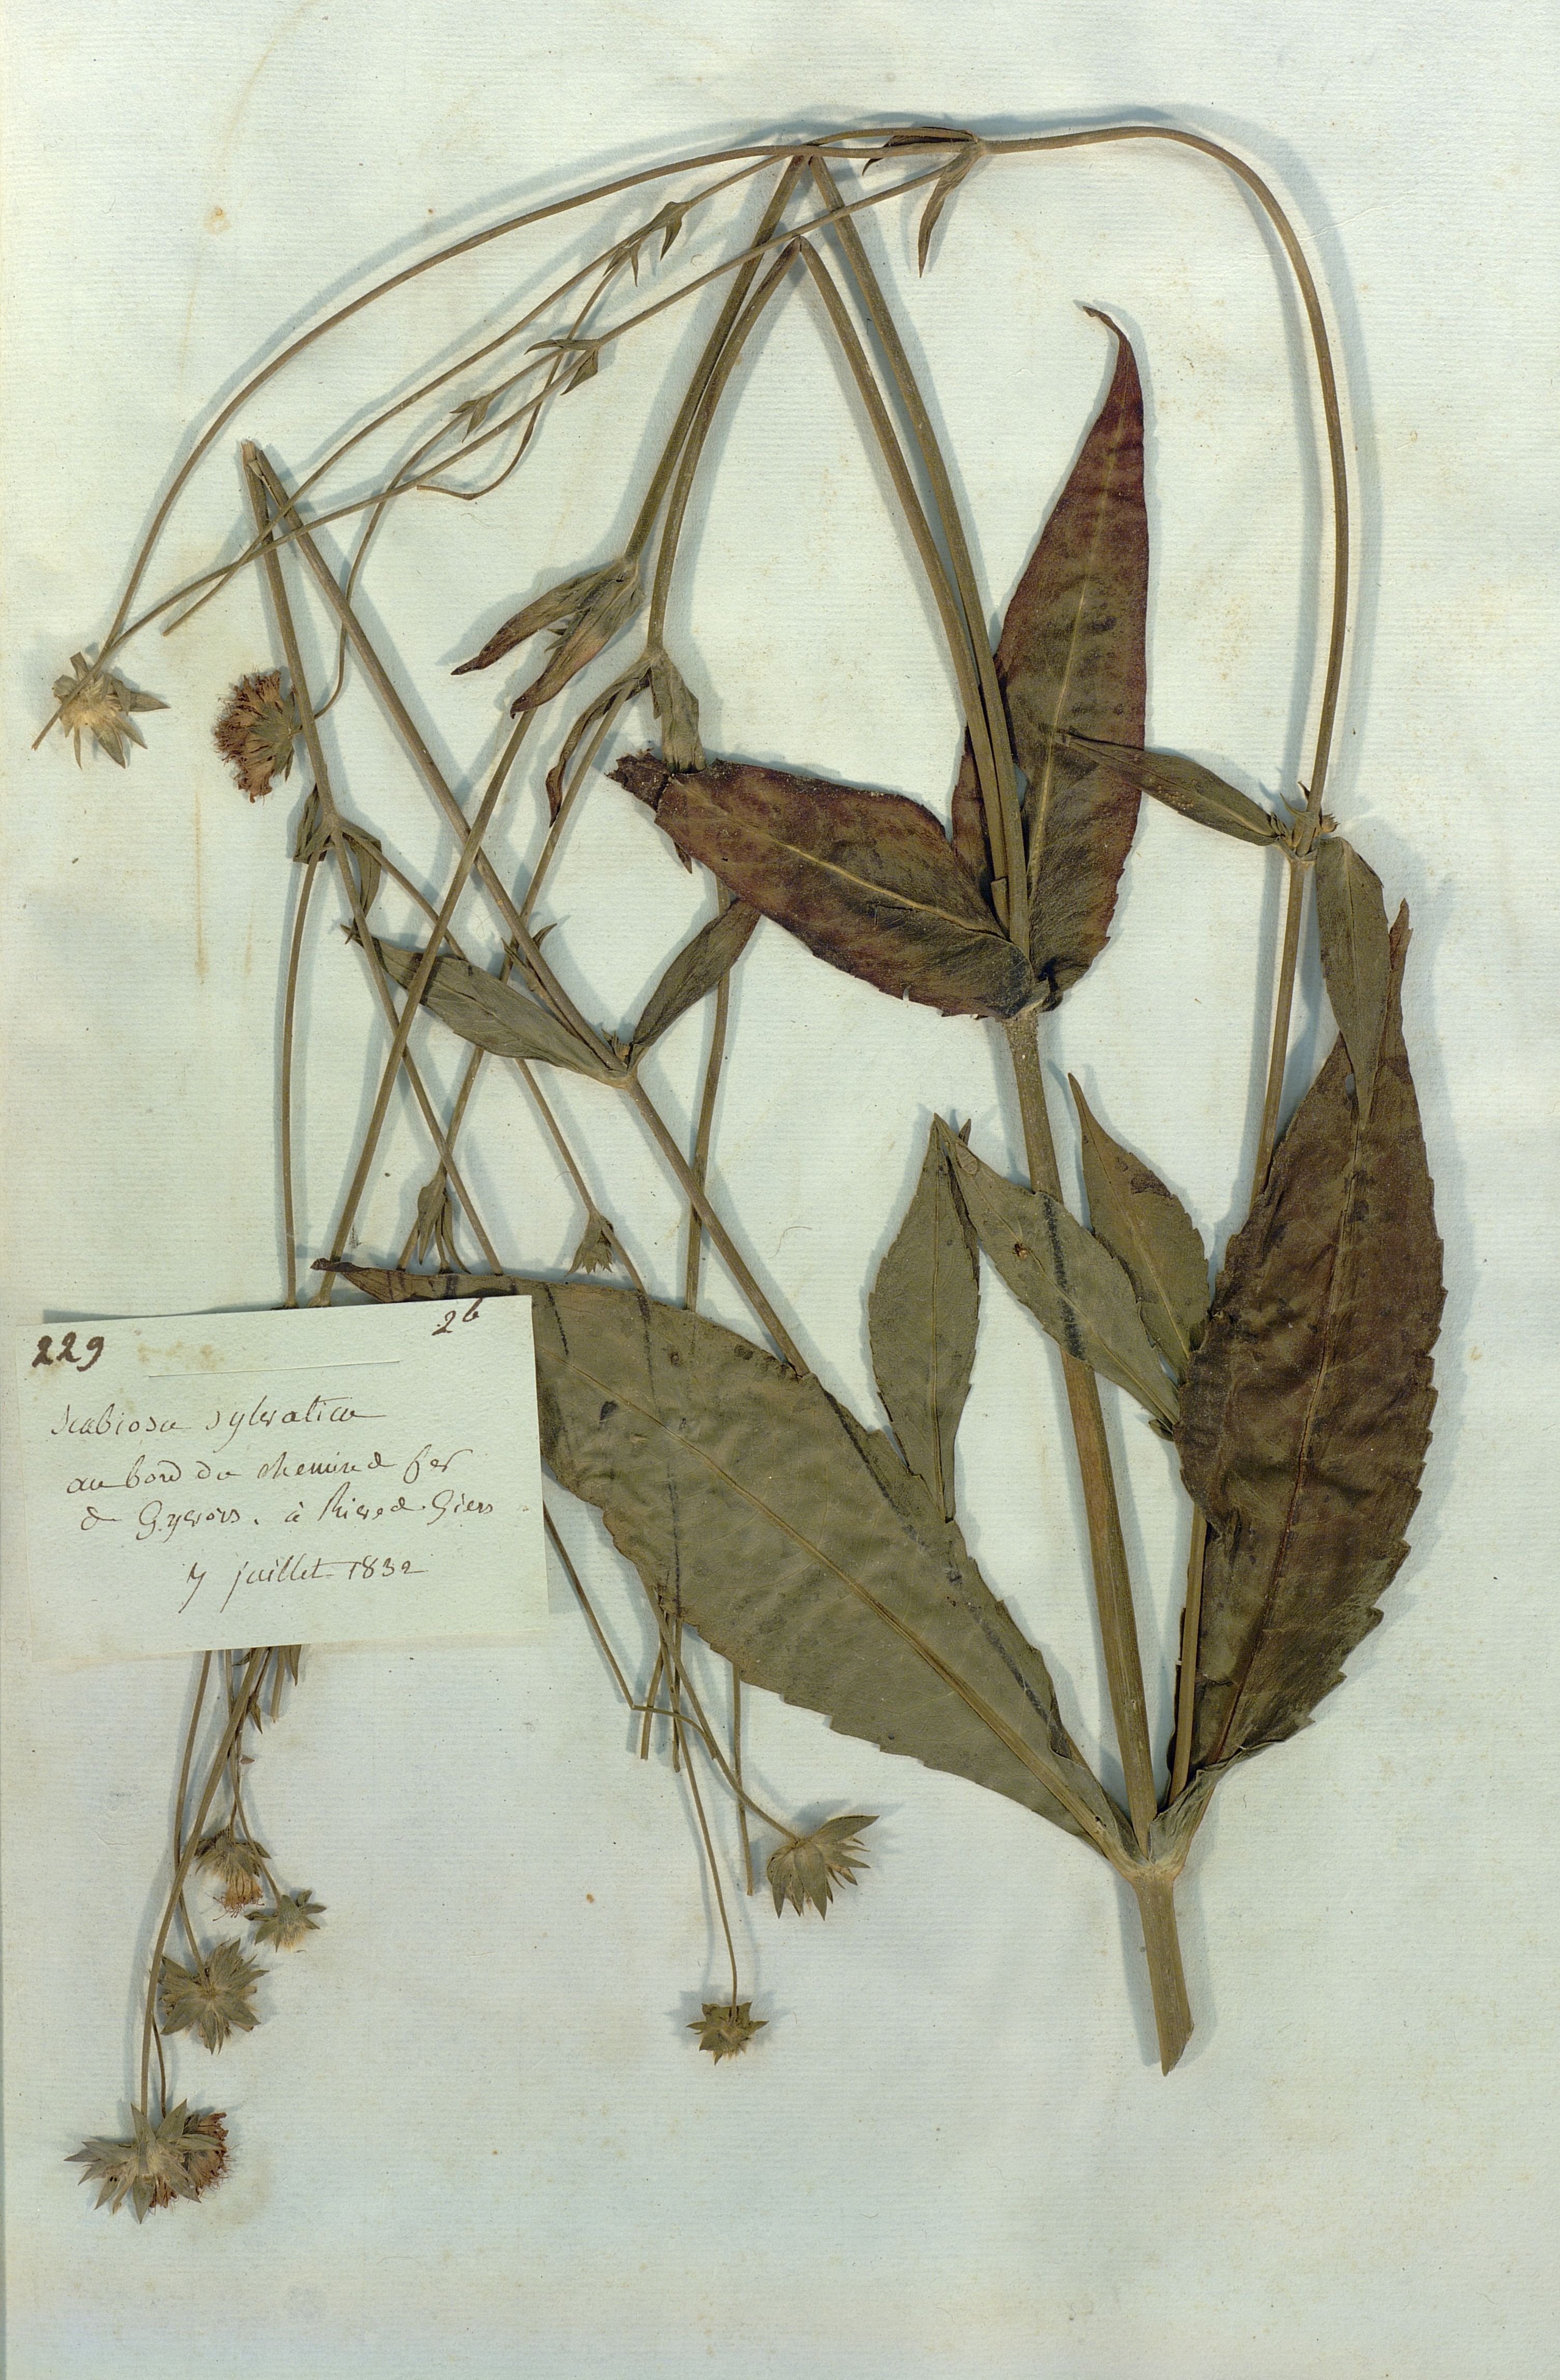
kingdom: Plantae
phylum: Tracheophyta
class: Magnoliopsida
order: Dipsacales
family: Caprifoliaceae
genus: Knautia
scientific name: Knautia drymeia
